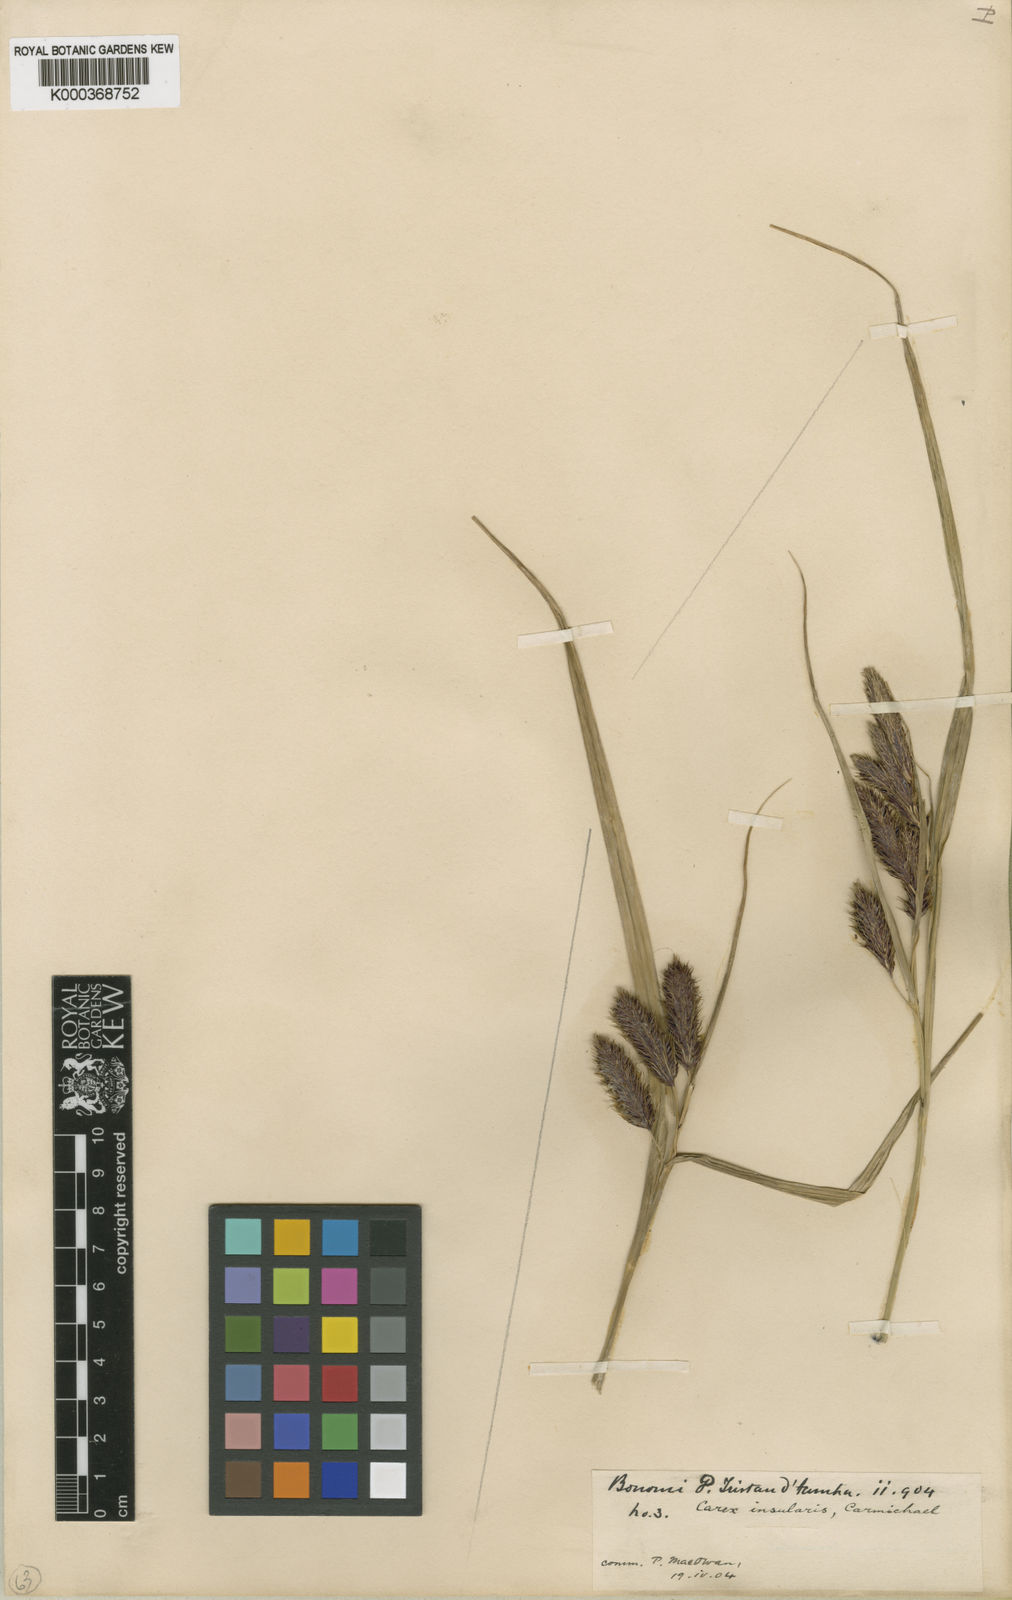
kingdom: Plantae
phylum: Tracheophyta
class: Liliopsida
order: Poales
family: Cyperaceae
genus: Carex
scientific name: Carex insularis
